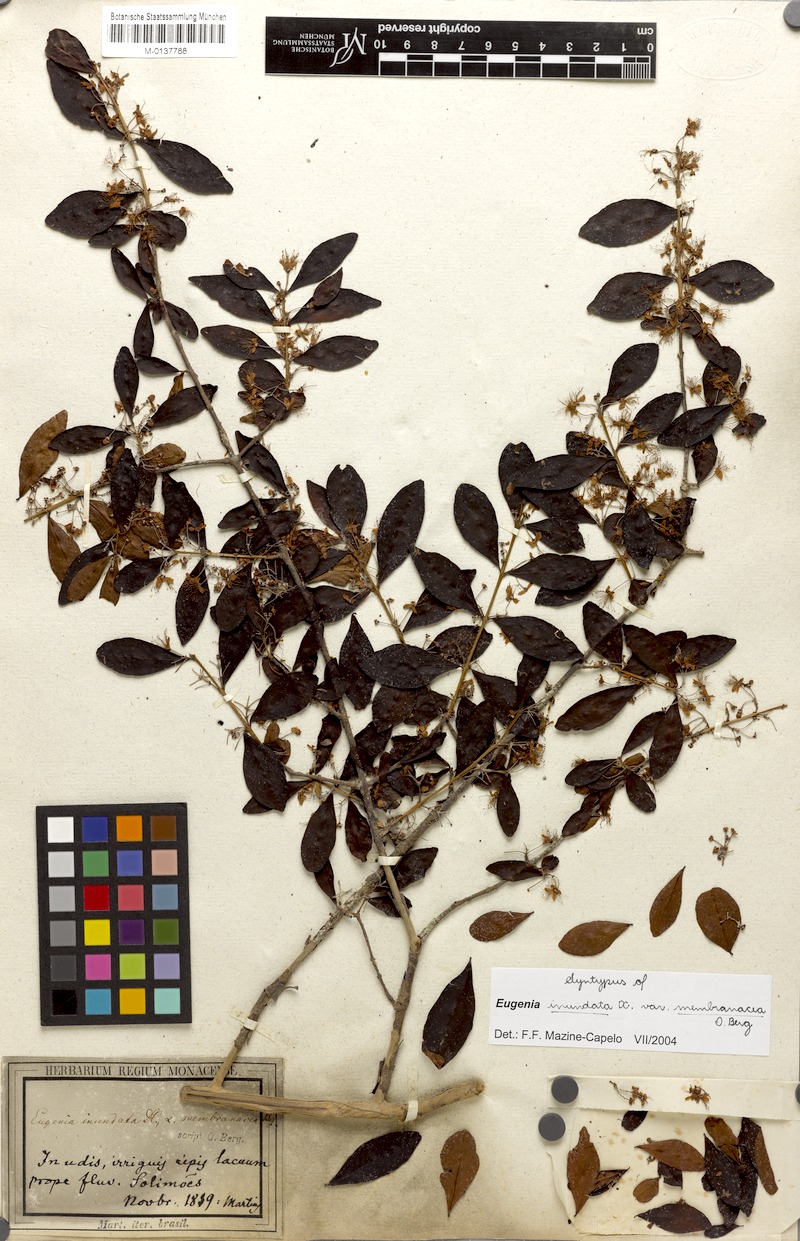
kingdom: Plantae
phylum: Tracheophyta
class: Magnoliopsida
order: Myrtales
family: Myrtaceae
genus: Eugenia
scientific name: Eugenia inundata
